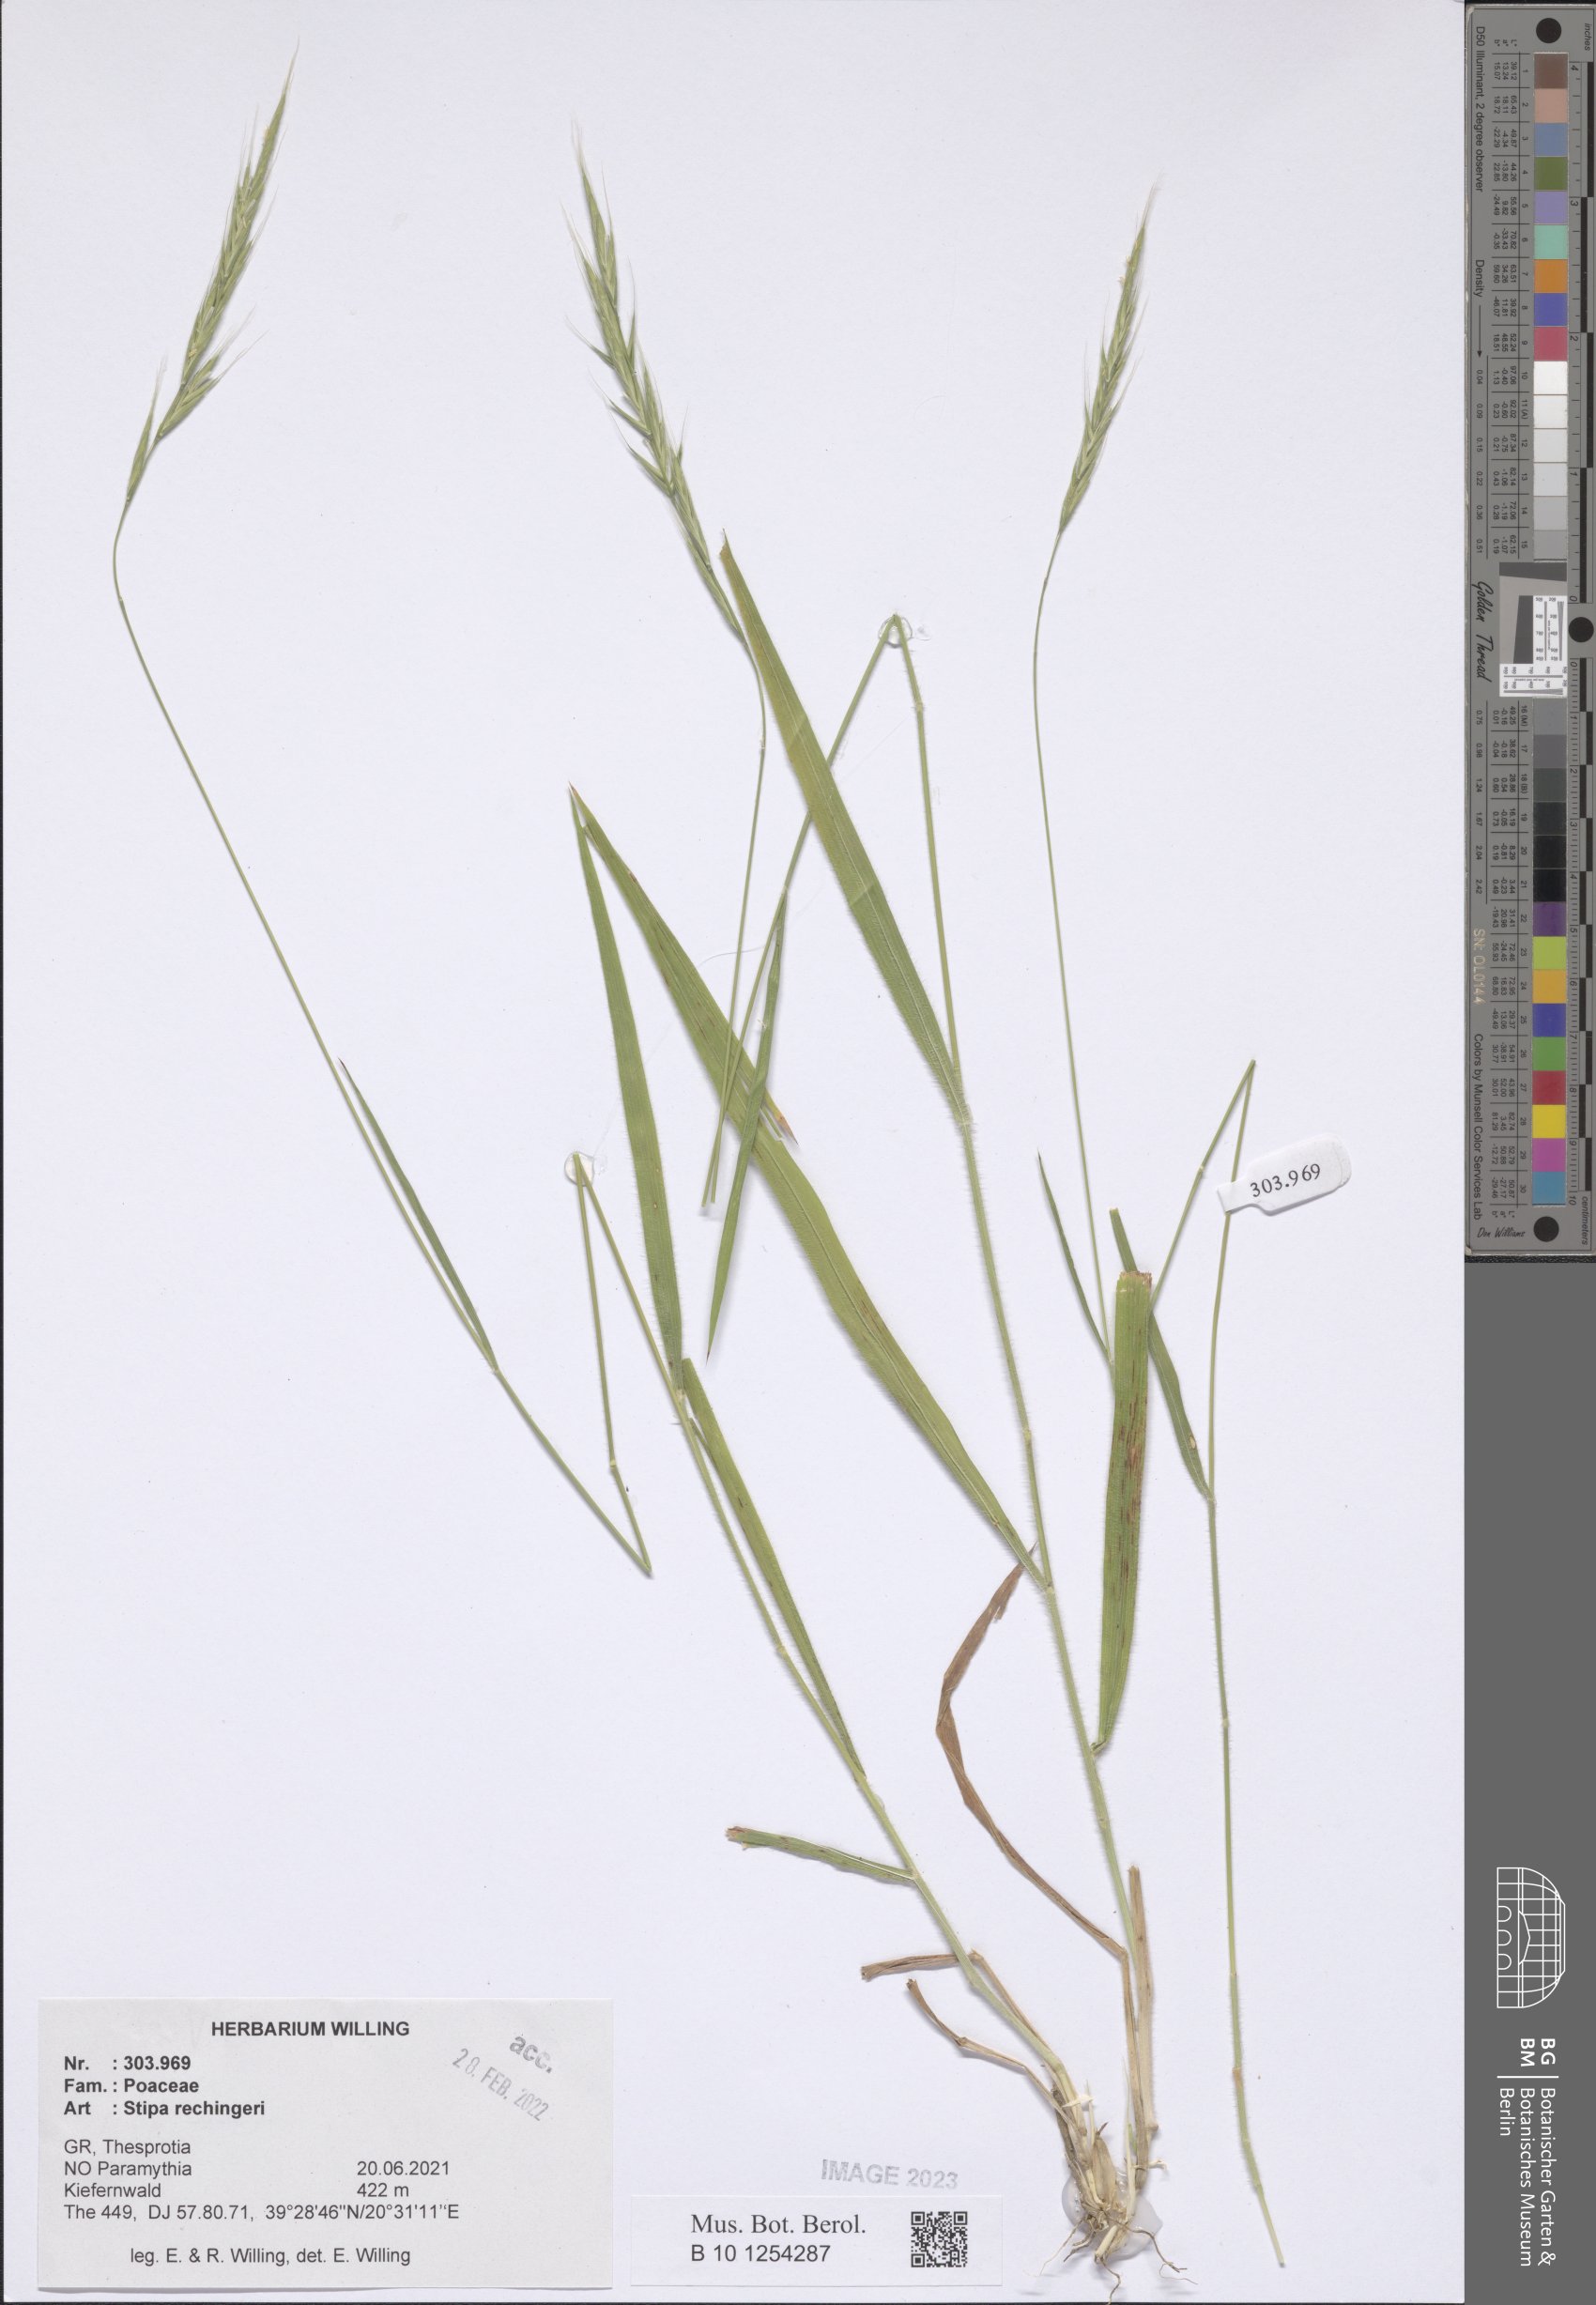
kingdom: Plantae
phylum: Tracheophyta
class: Liliopsida
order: Poales
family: Poaceae
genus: Stipa
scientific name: Stipa rechingeri
